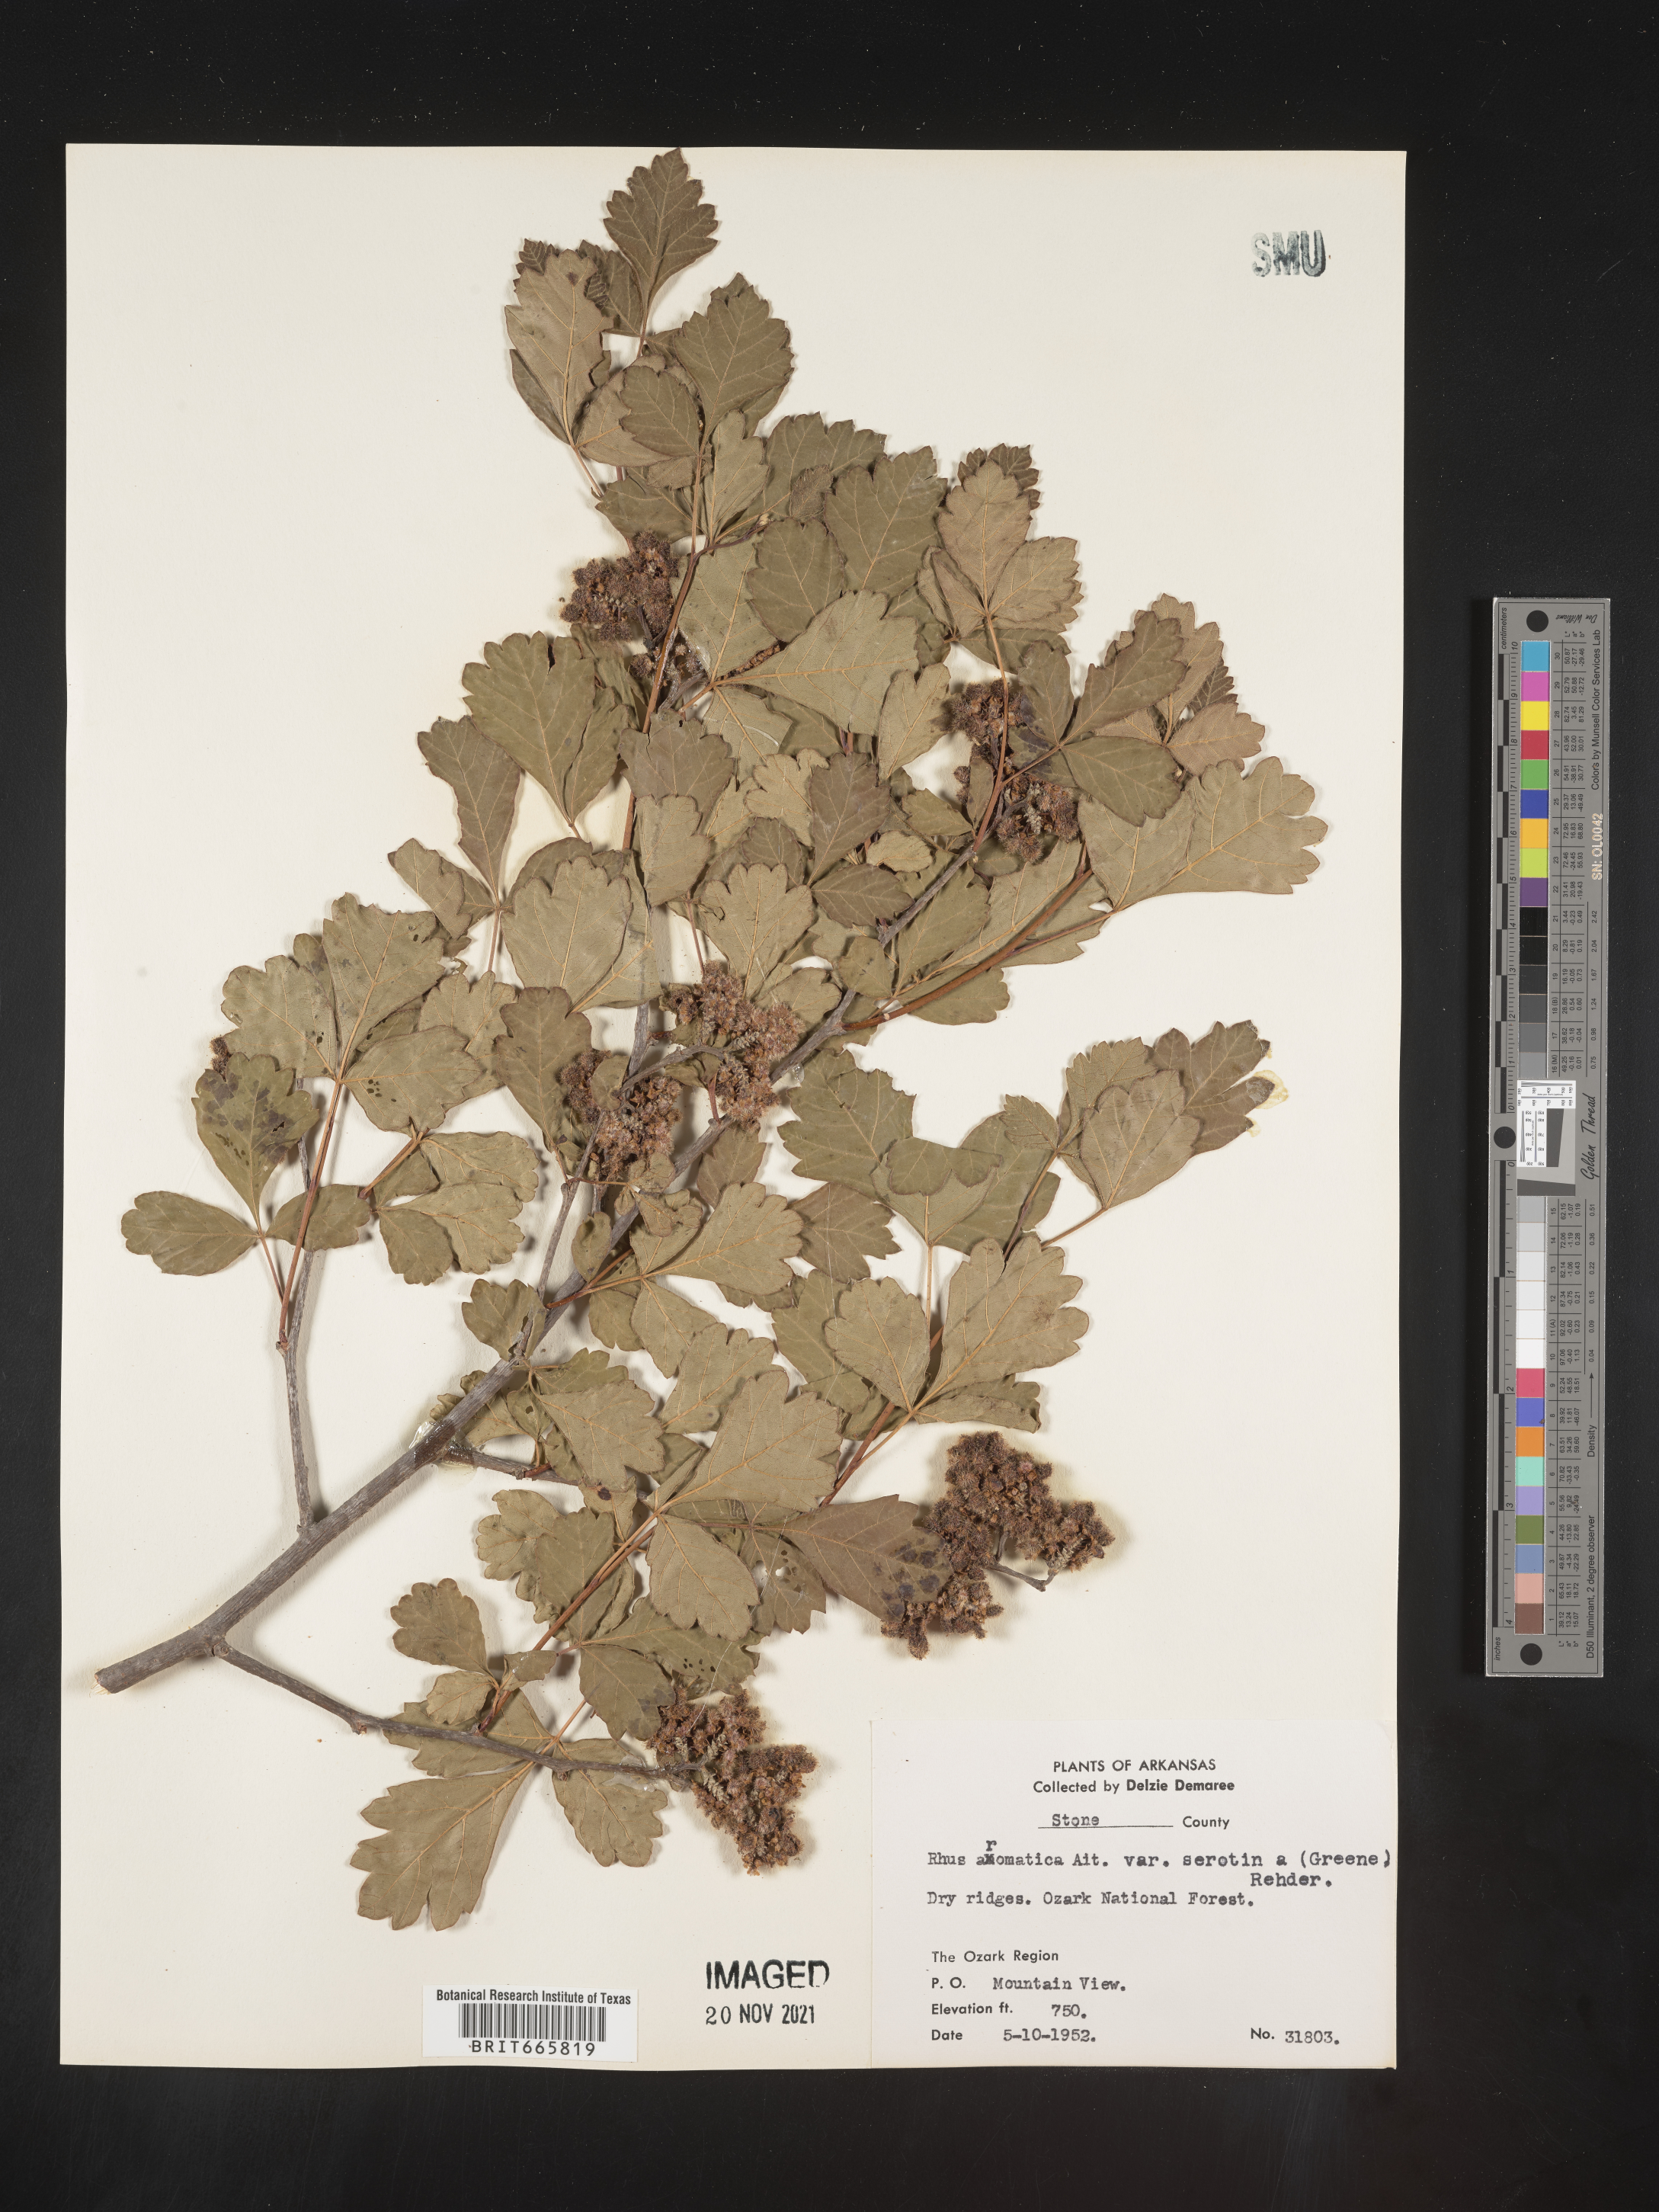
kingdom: Plantae
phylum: Tracheophyta
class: Magnoliopsida
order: Sapindales
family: Anacardiaceae
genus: Rhus
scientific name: Rhus aromatica
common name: Aromatic sumac
